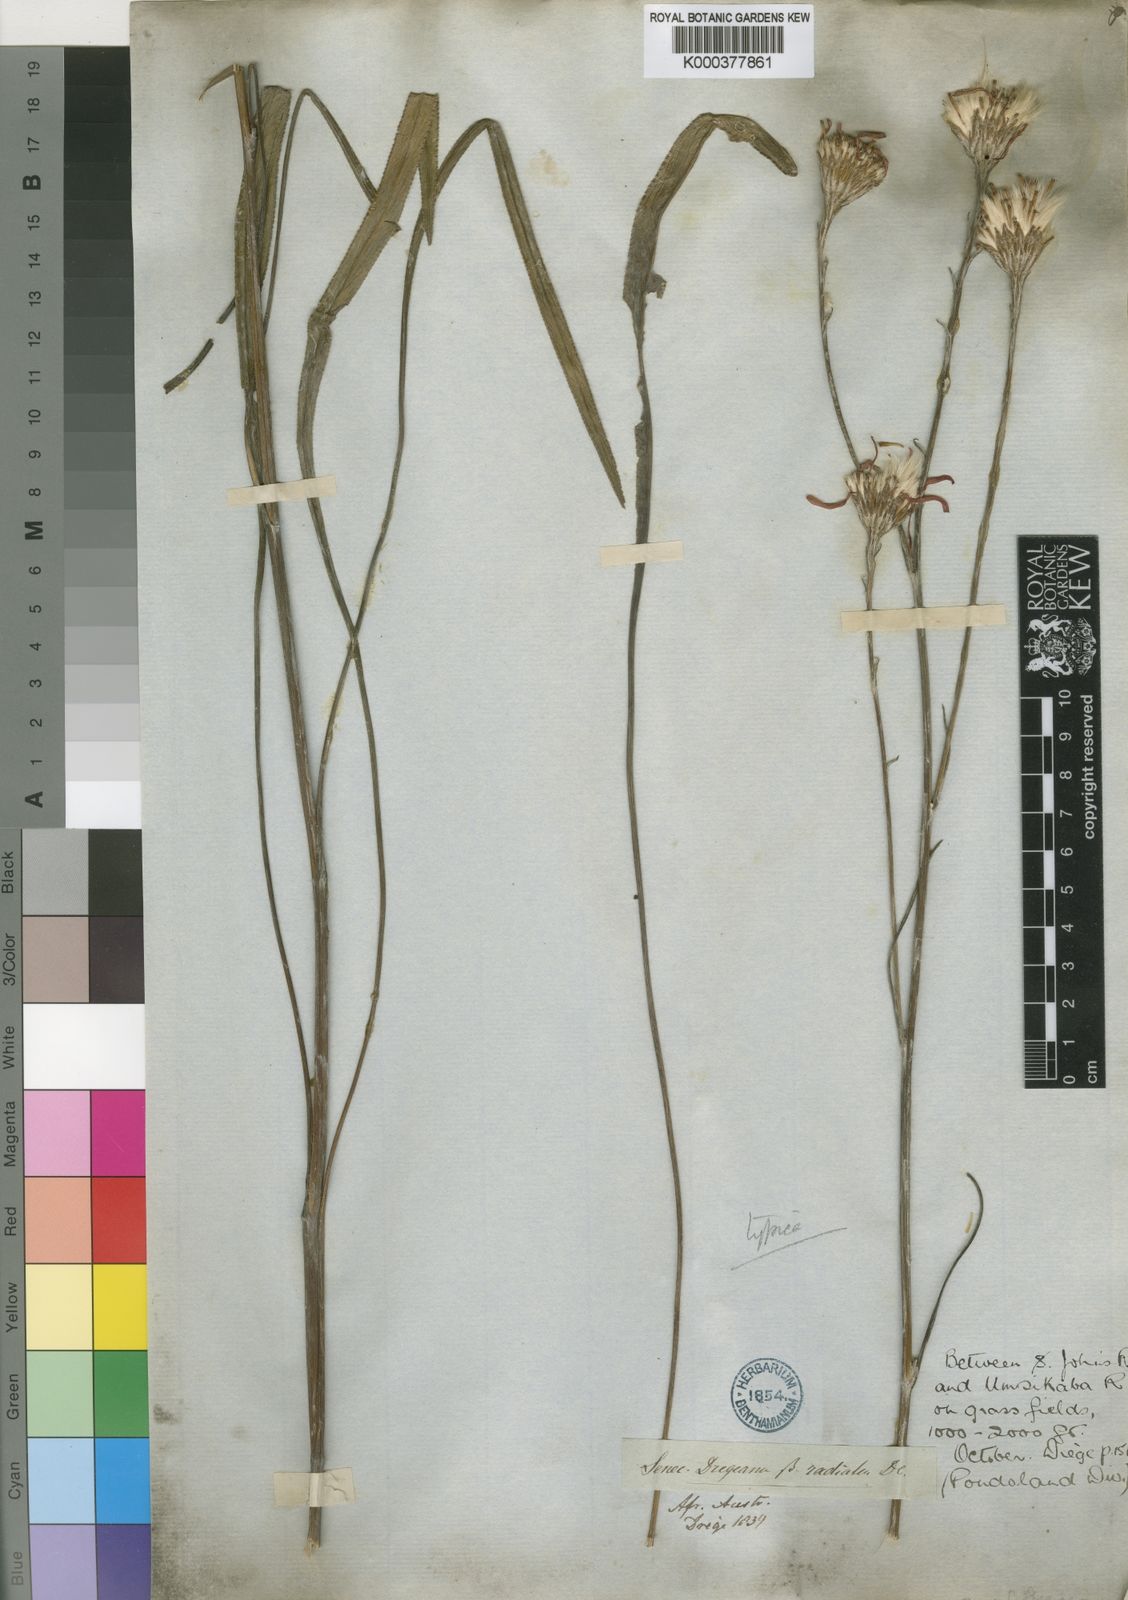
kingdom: Plantae
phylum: Tracheophyta
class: Magnoliopsida
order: Asterales
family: Asteraceae
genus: Senecio
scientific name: Senecio dregeanus
